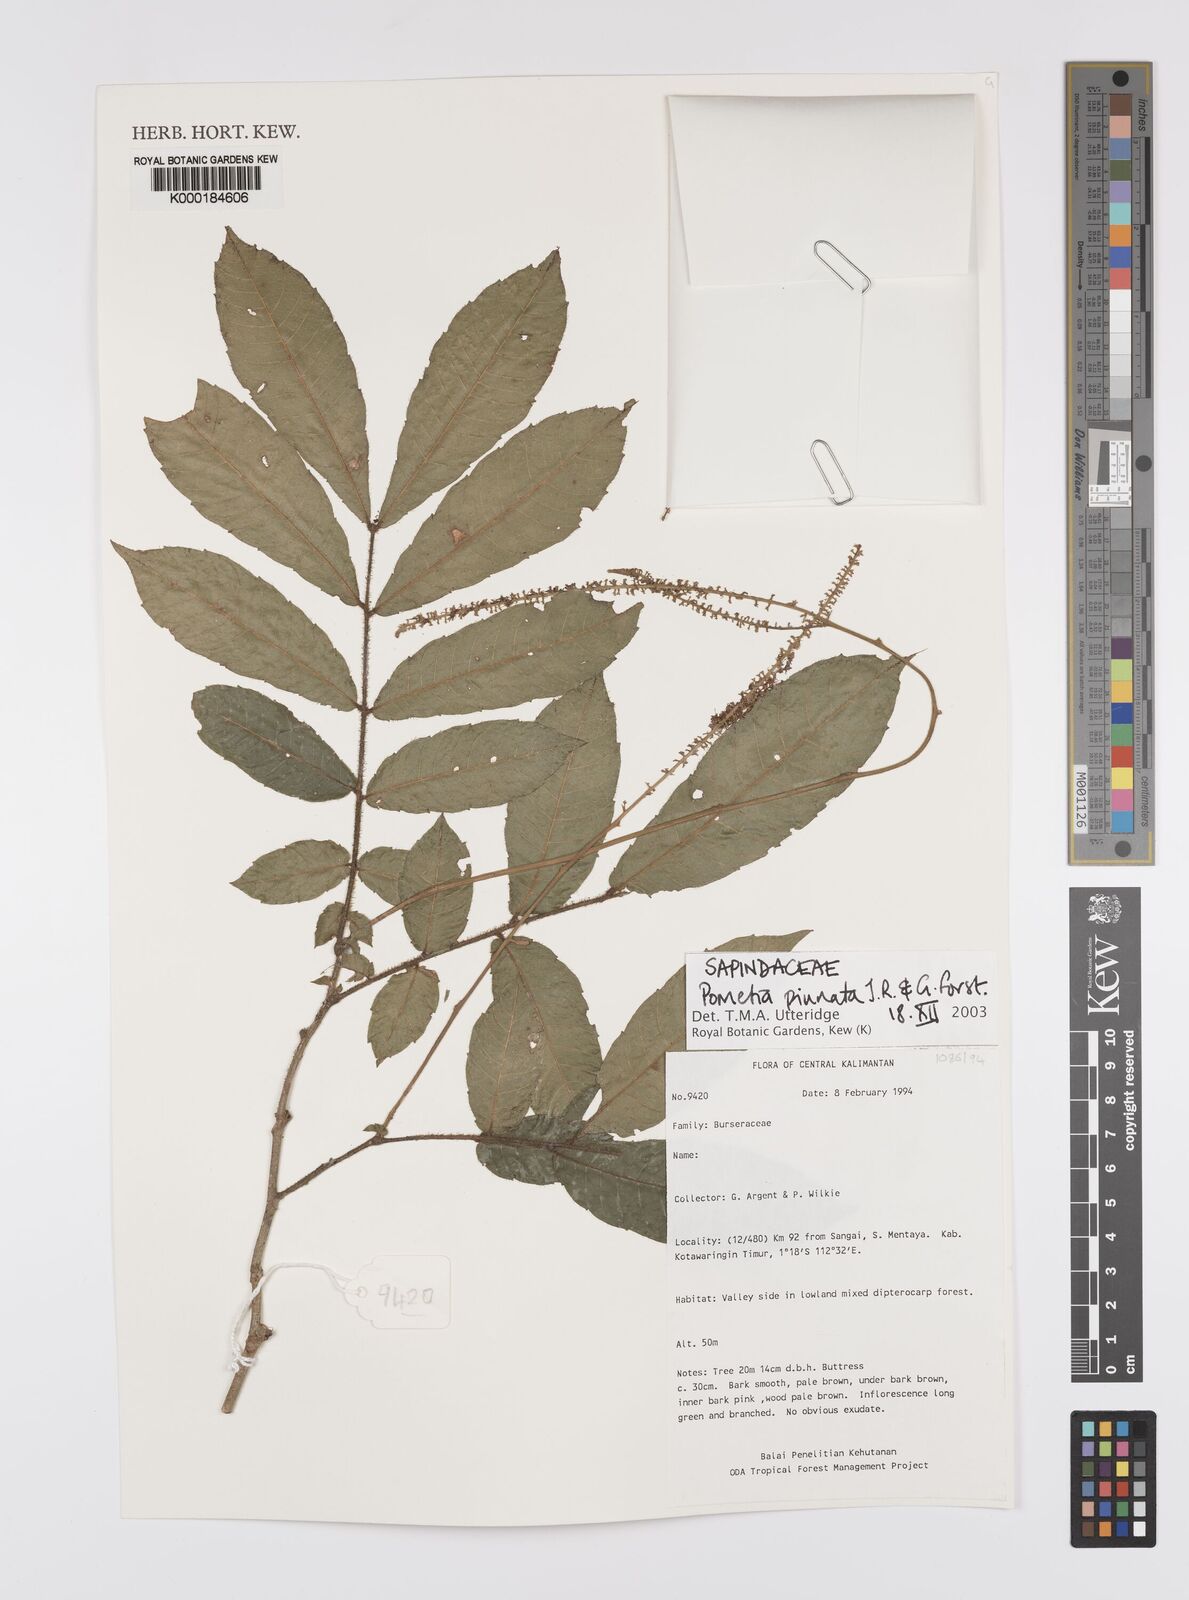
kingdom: Plantae
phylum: Tracheophyta
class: Magnoliopsida
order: Sapindales
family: Sapindaceae
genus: Pometia
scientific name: Pometia pinnata
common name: Oceanic lychee
